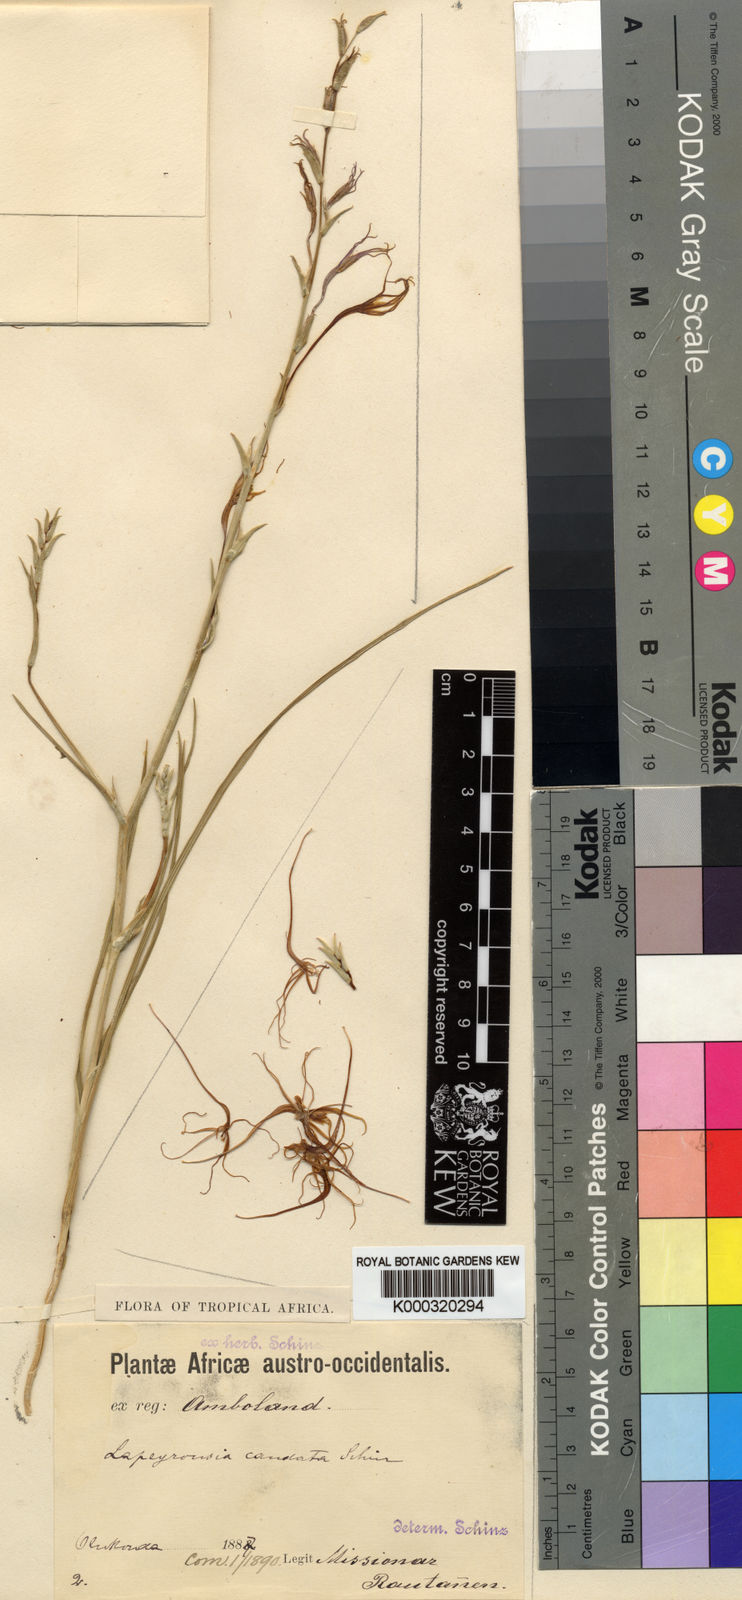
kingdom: Plantae
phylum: Tracheophyta
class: Liliopsida
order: Asparagales
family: Iridaceae
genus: Lapeirousia
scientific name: Lapeirousia caudata
